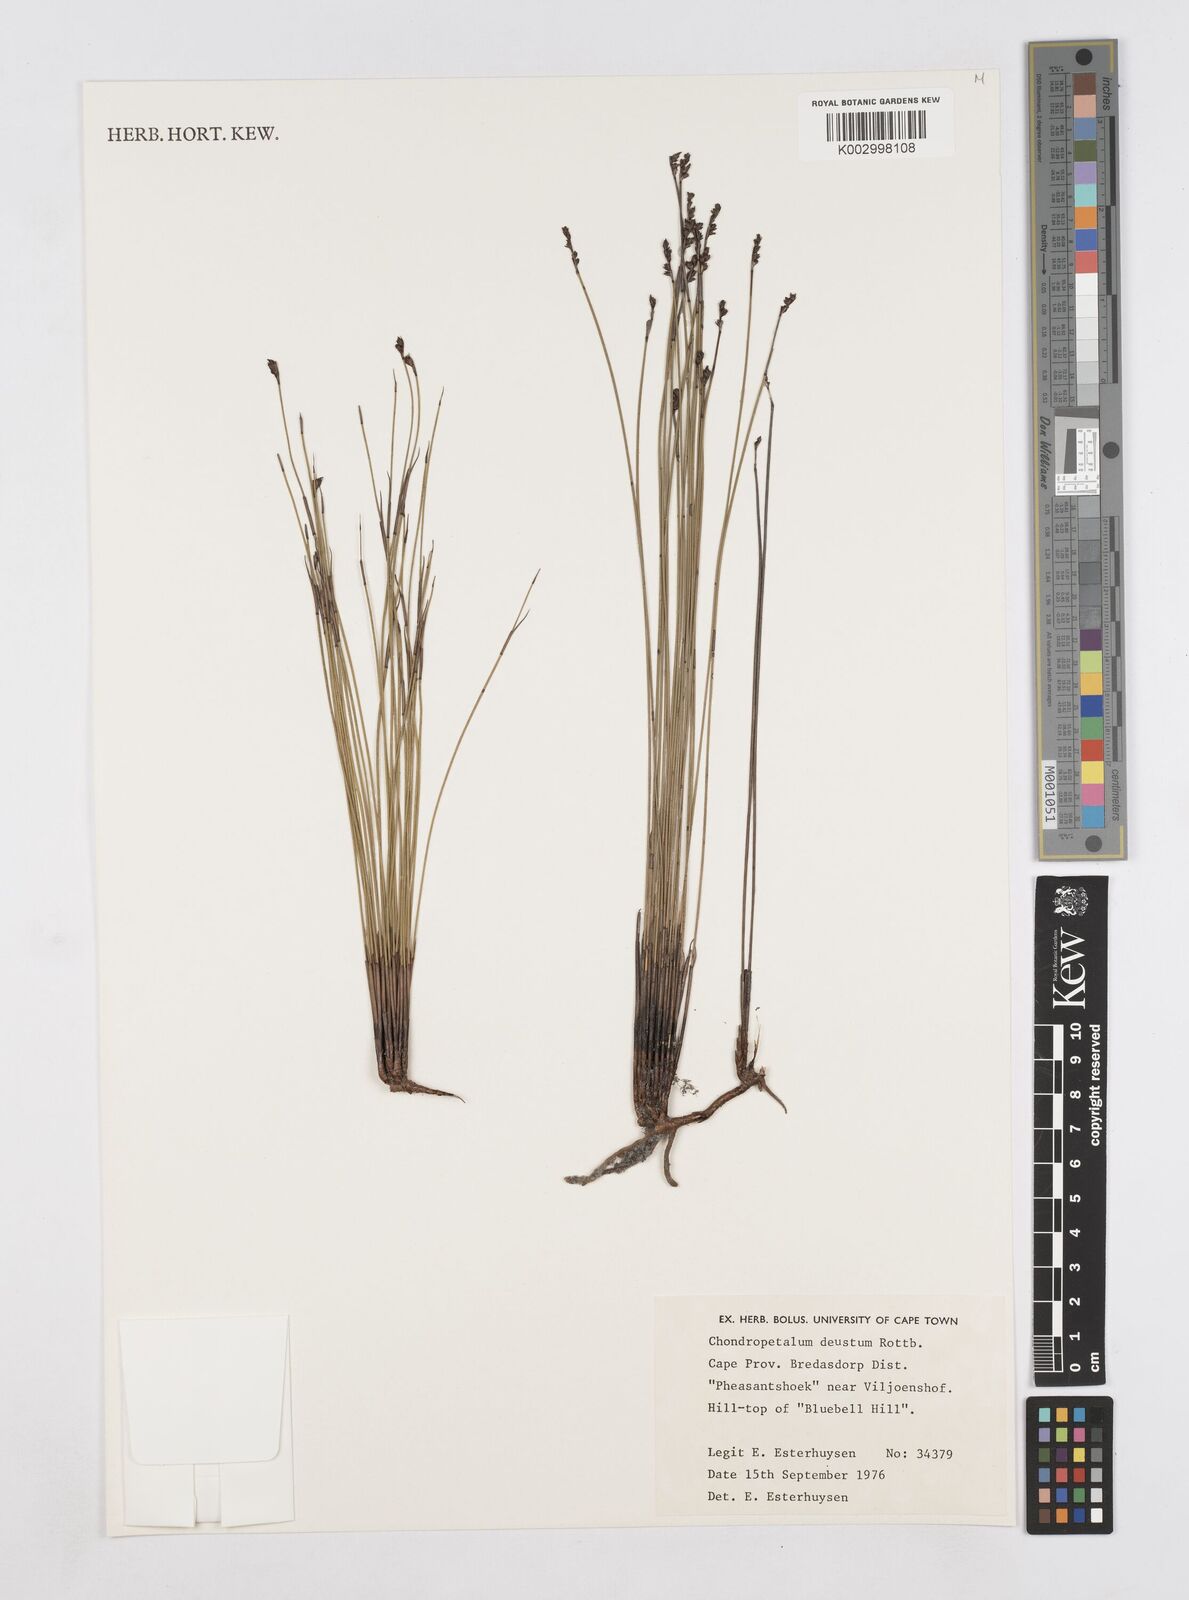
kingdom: Plantae
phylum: Tracheophyta
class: Liliopsida
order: Poales
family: Restionaceae
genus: Elegia
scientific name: Elegia
